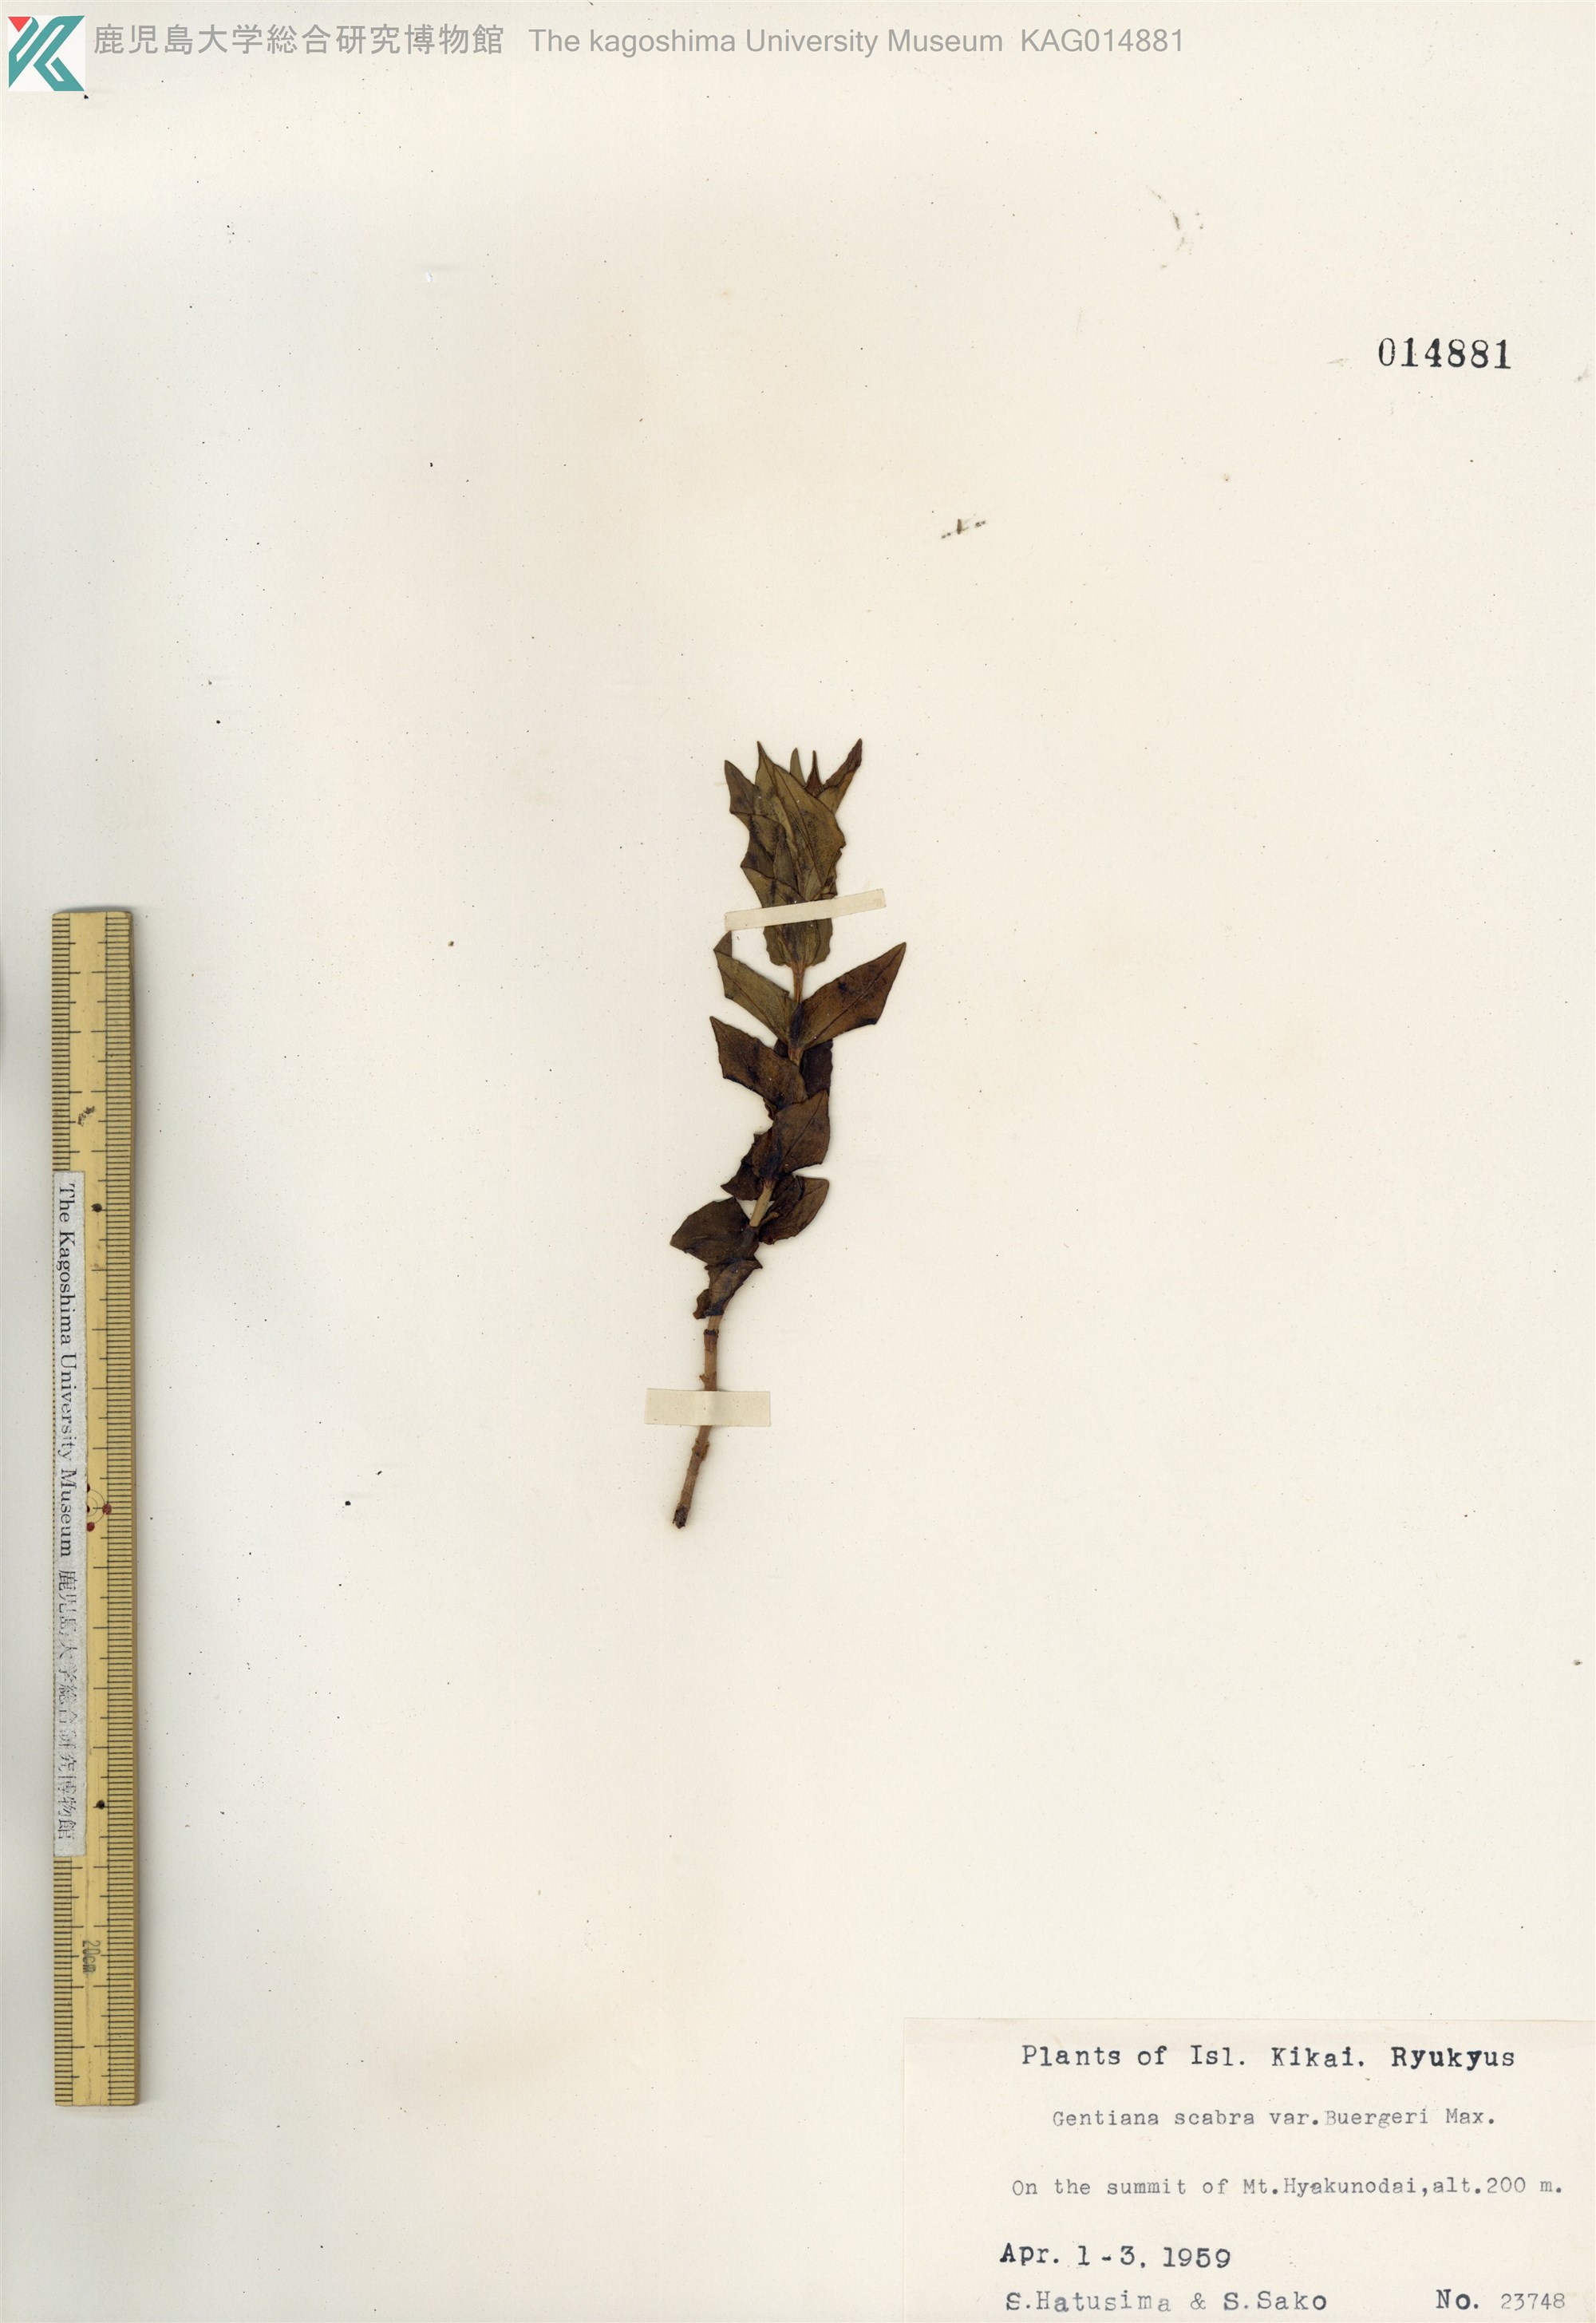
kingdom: Plantae
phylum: Tracheophyta
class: Magnoliopsida
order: Gentianales
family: Gentianaceae
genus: Gentiana
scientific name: Gentiana scabra
